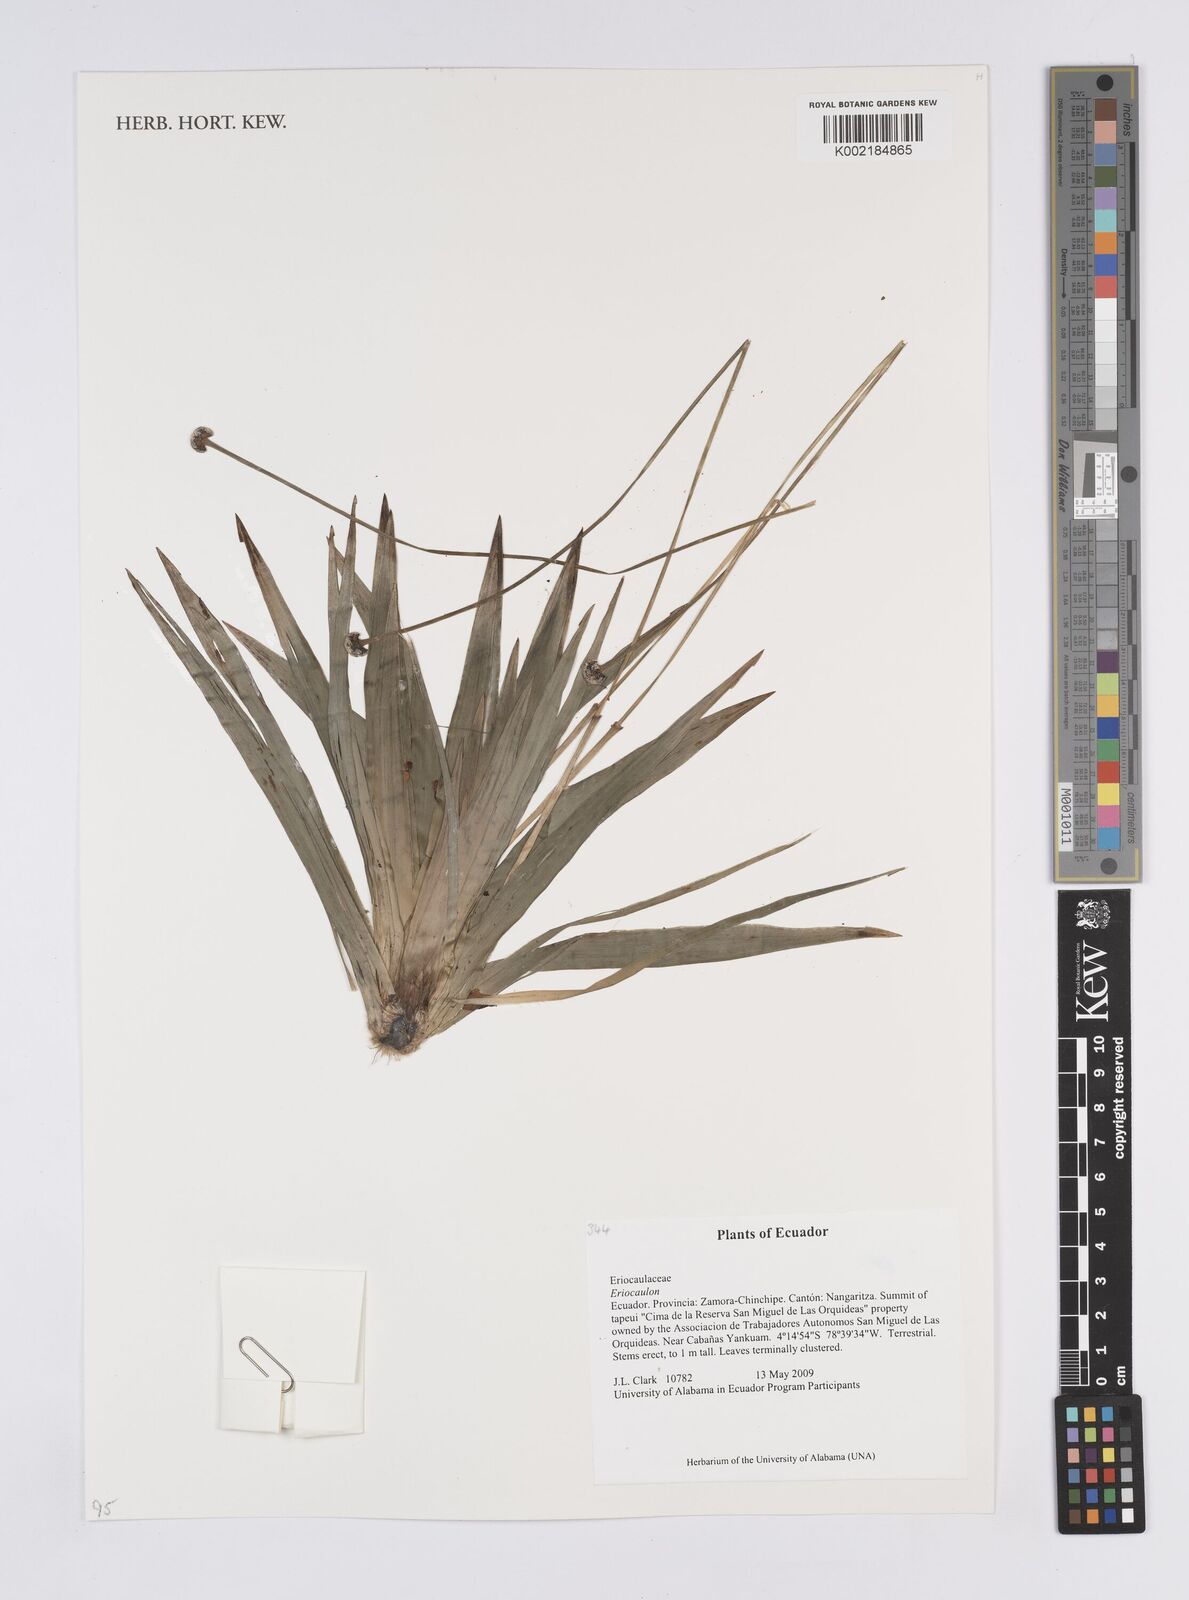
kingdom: Plantae
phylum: Tracheophyta
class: Liliopsida
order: Poales
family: Eriocaulaceae
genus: Eriocaulon
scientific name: Eriocaulon
